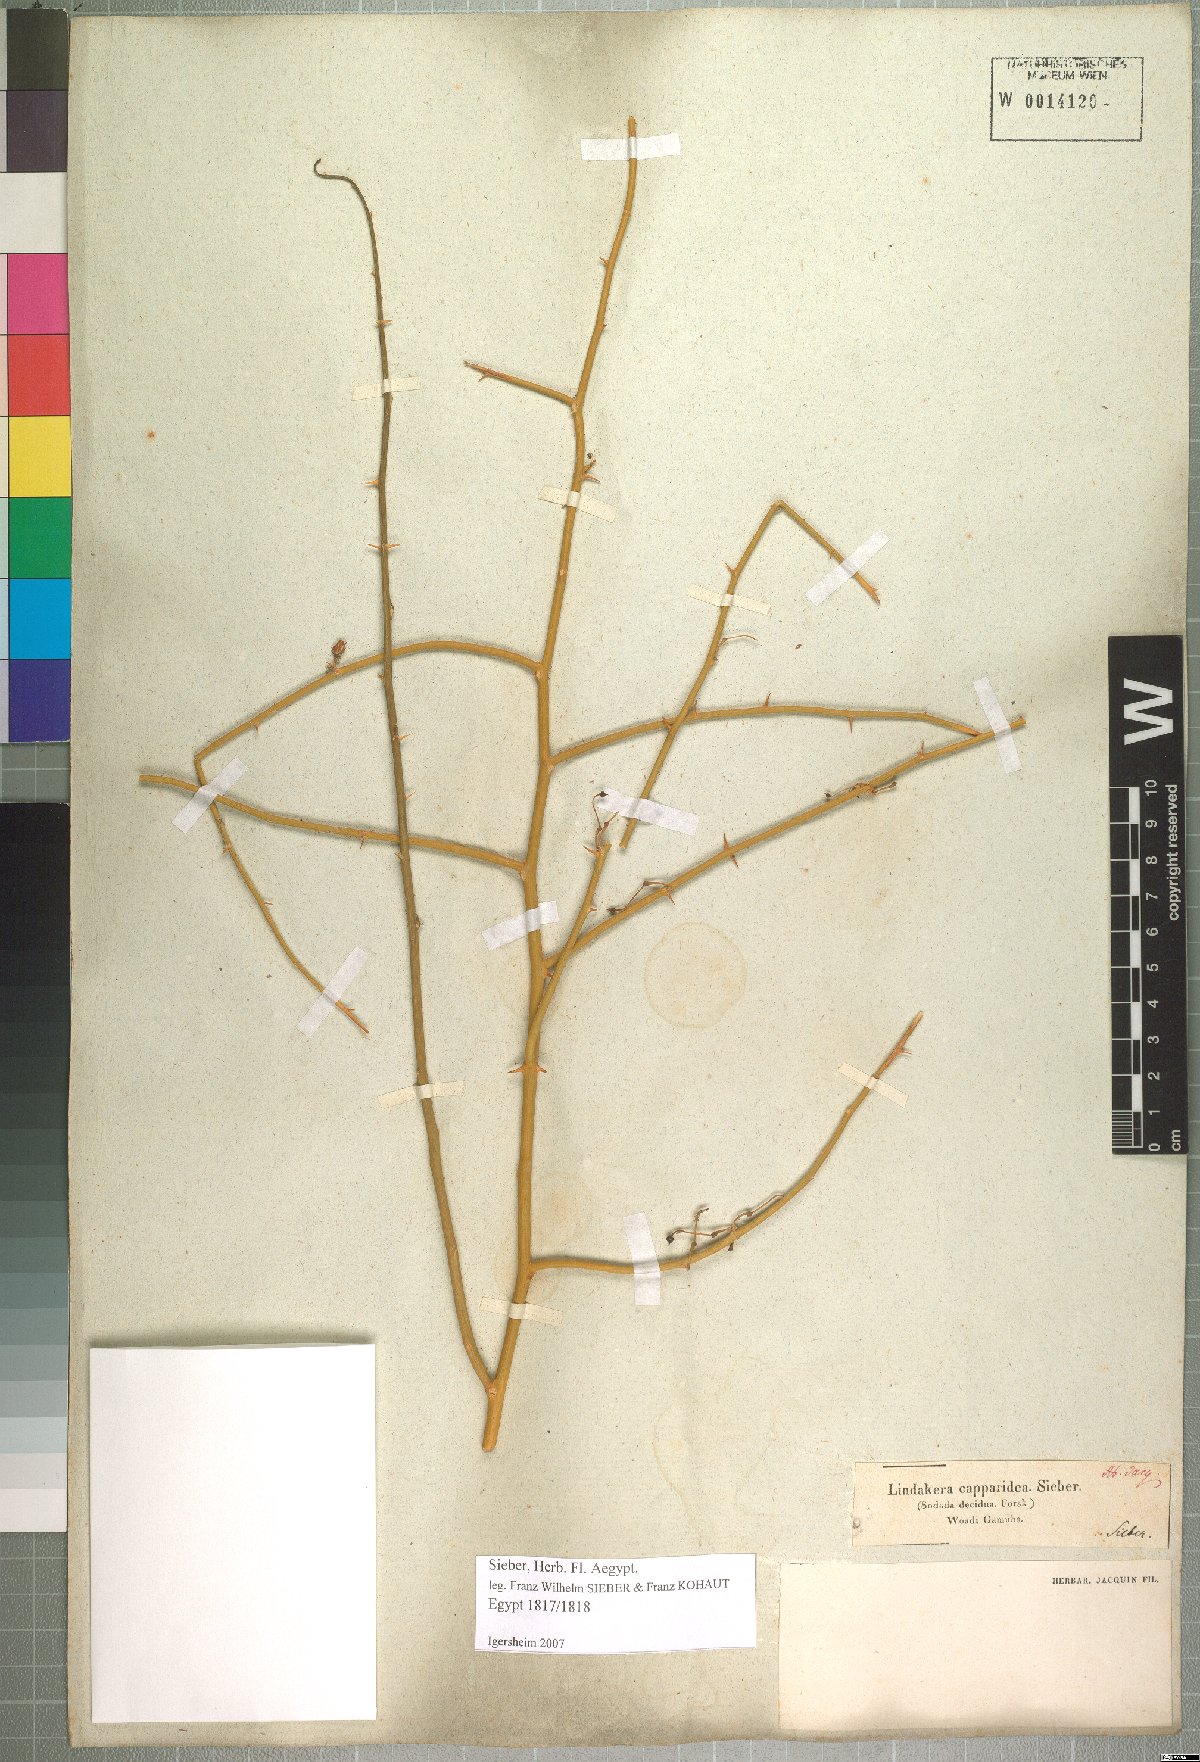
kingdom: Plantae
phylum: Tracheophyta
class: Magnoliopsida
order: Brassicales
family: Capparaceae
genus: Capparis
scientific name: Capparis decidua
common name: Sodada
